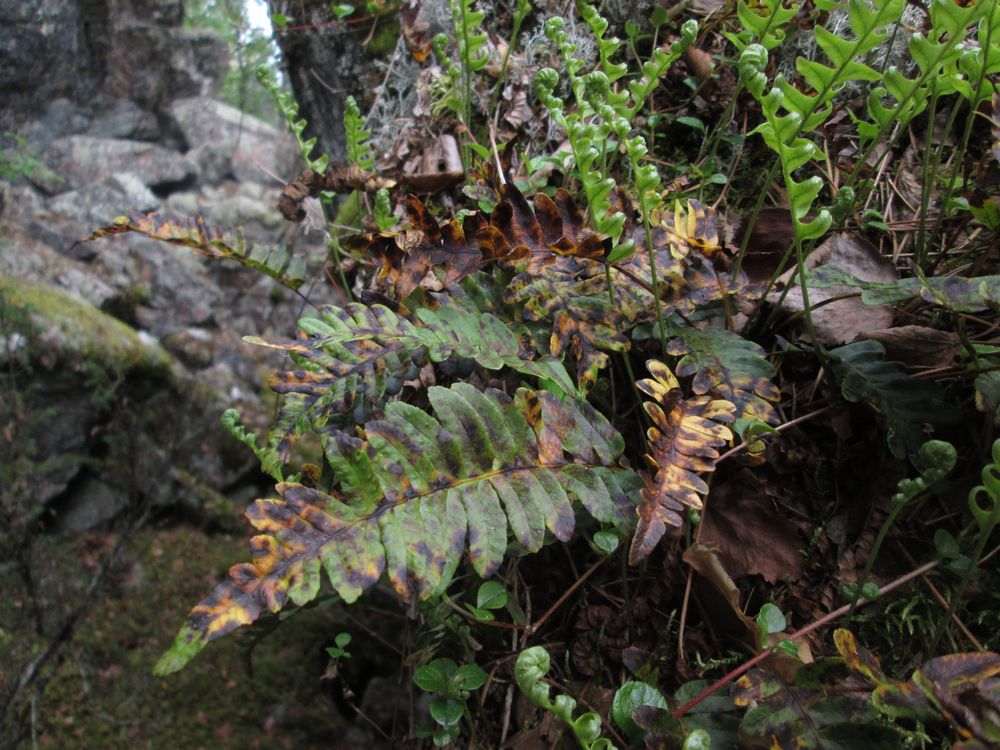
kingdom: Plantae
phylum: Tracheophyta
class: Polypodiopsida
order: Polypodiales
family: Polypodiaceae
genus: Polypodium
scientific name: Polypodium vulgare
